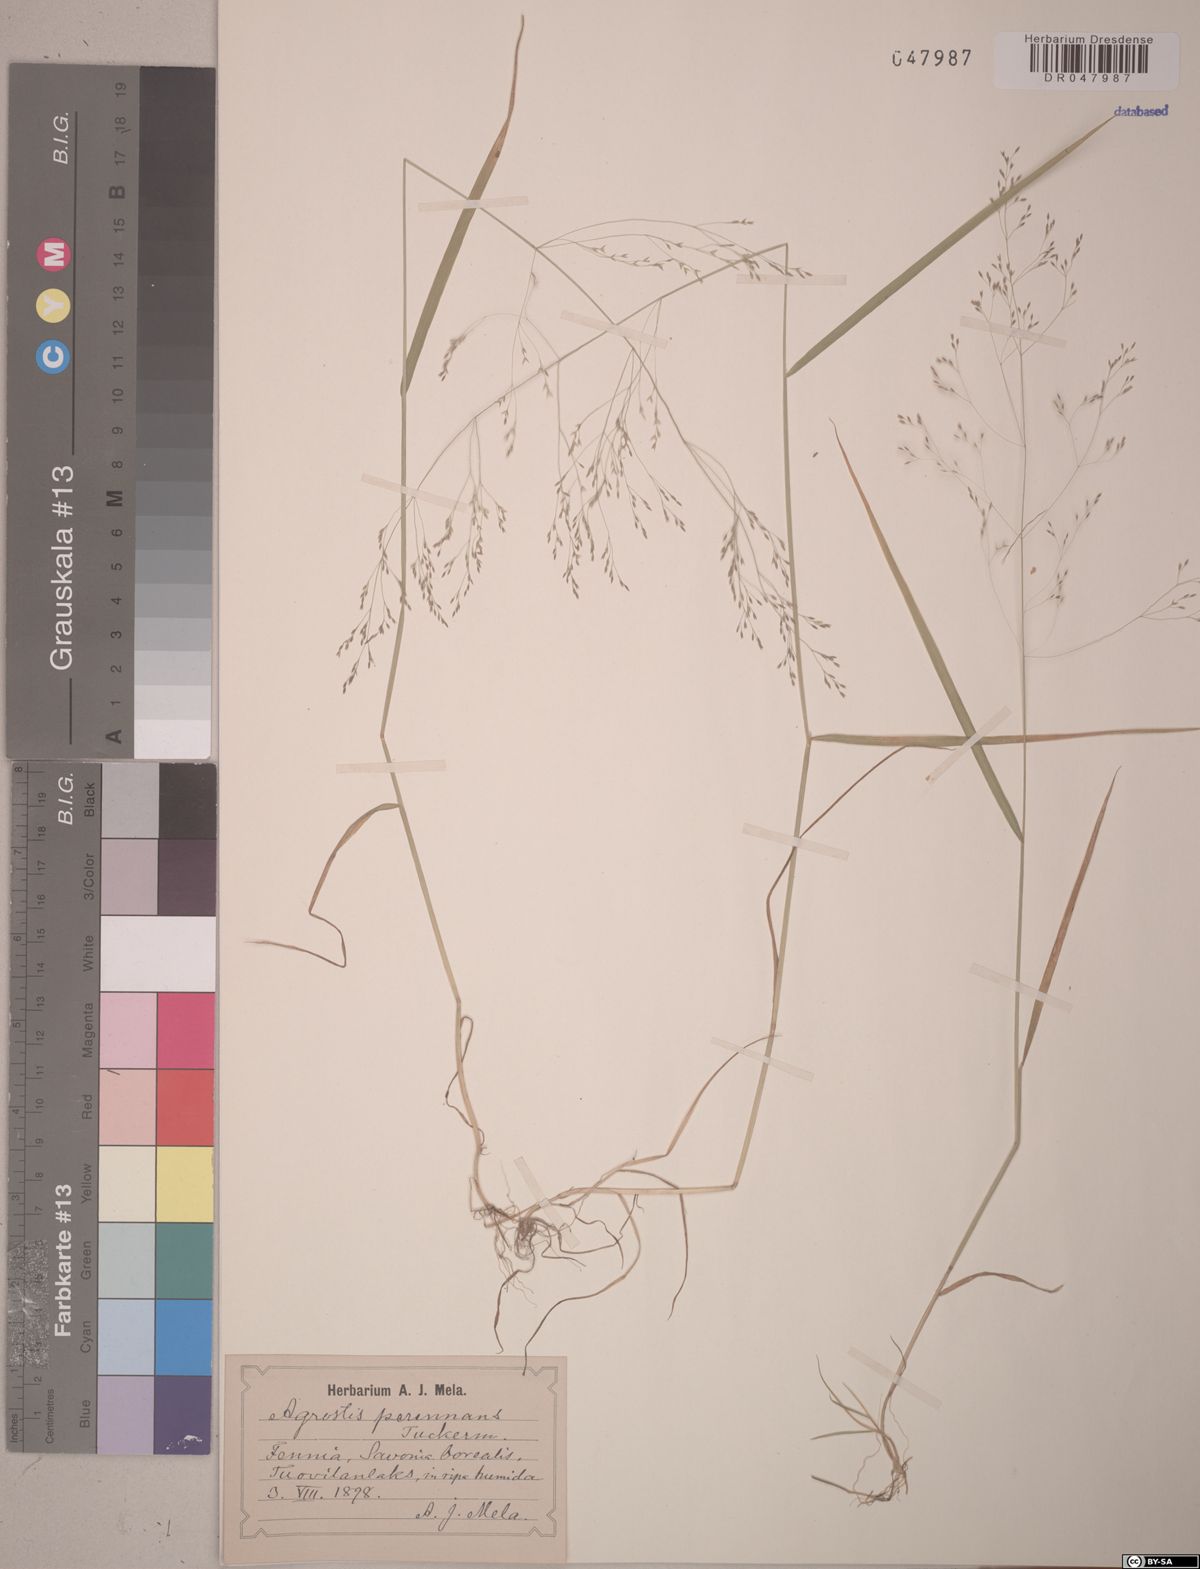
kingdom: Plantae
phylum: Tracheophyta
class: Liliopsida
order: Poales
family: Poaceae
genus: Agrostis
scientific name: Agrostis perennans
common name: Autumn bent
